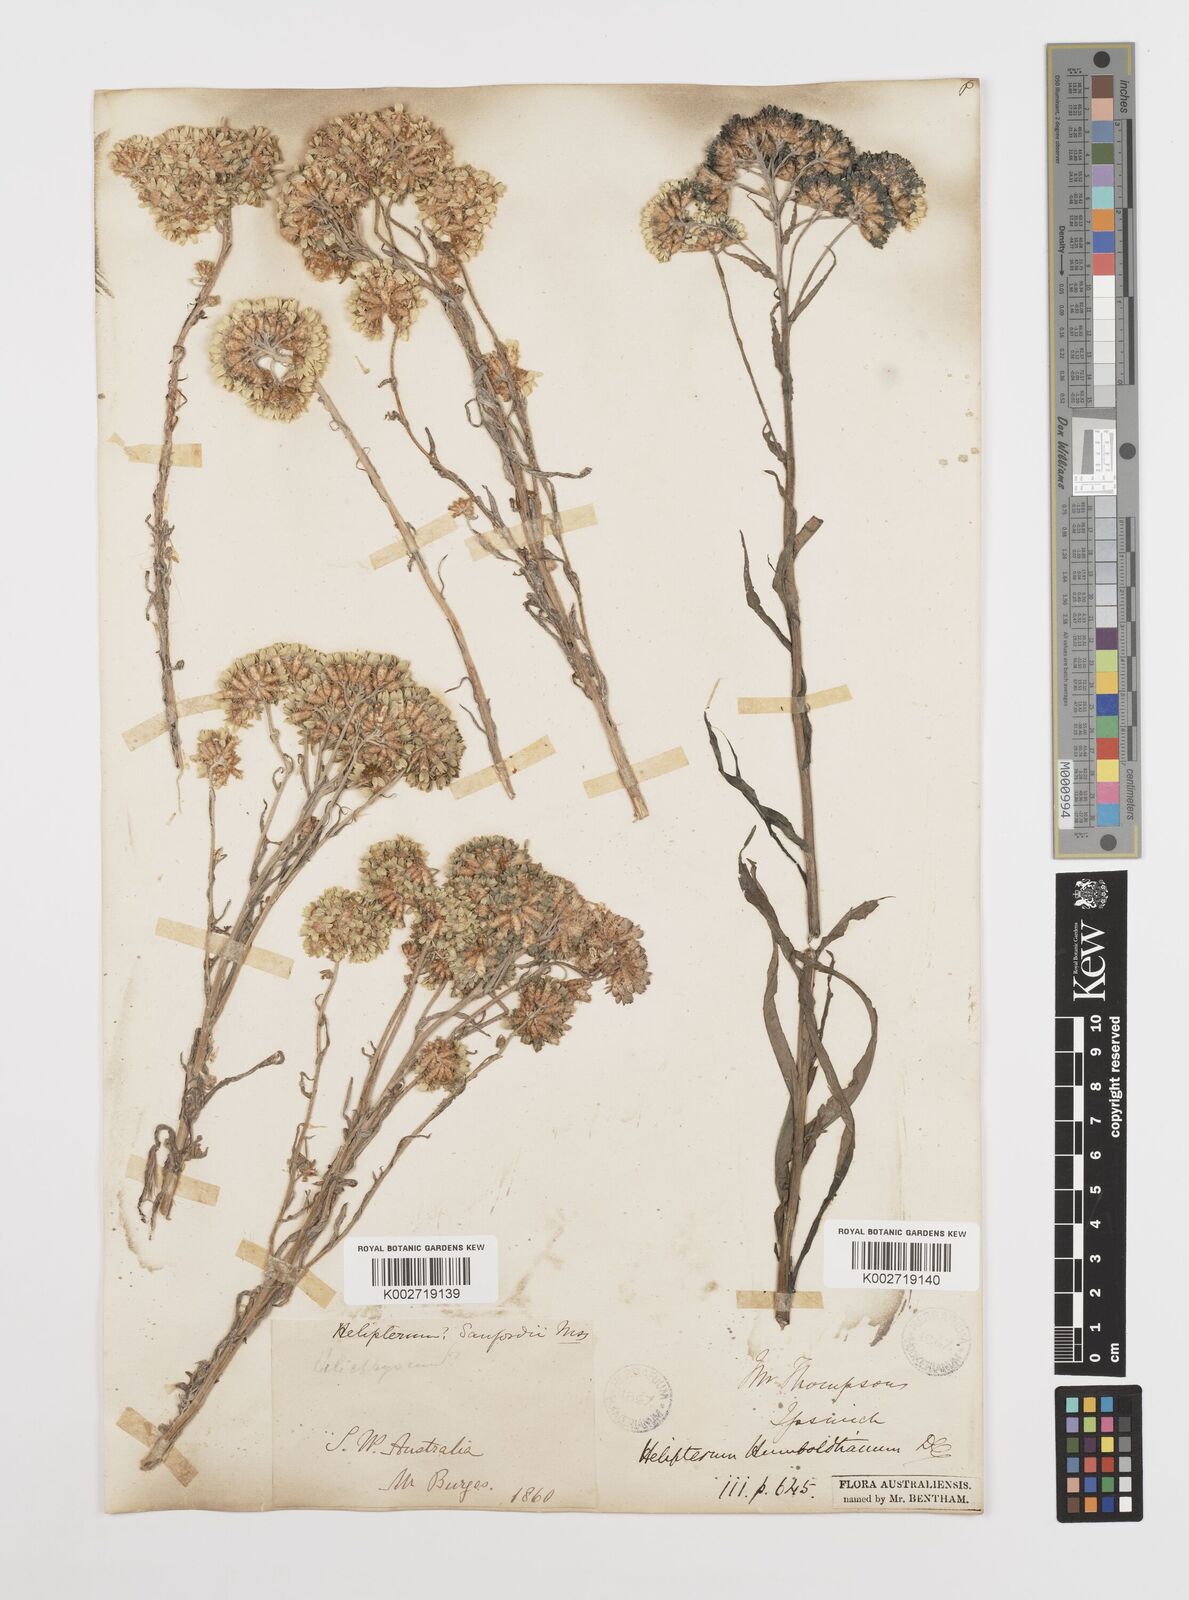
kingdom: Plantae
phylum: Tracheophyta
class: Magnoliopsida
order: Asterales
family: Asteraceae
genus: Rhodanthe
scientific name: Rhodanthe humboldtiana
